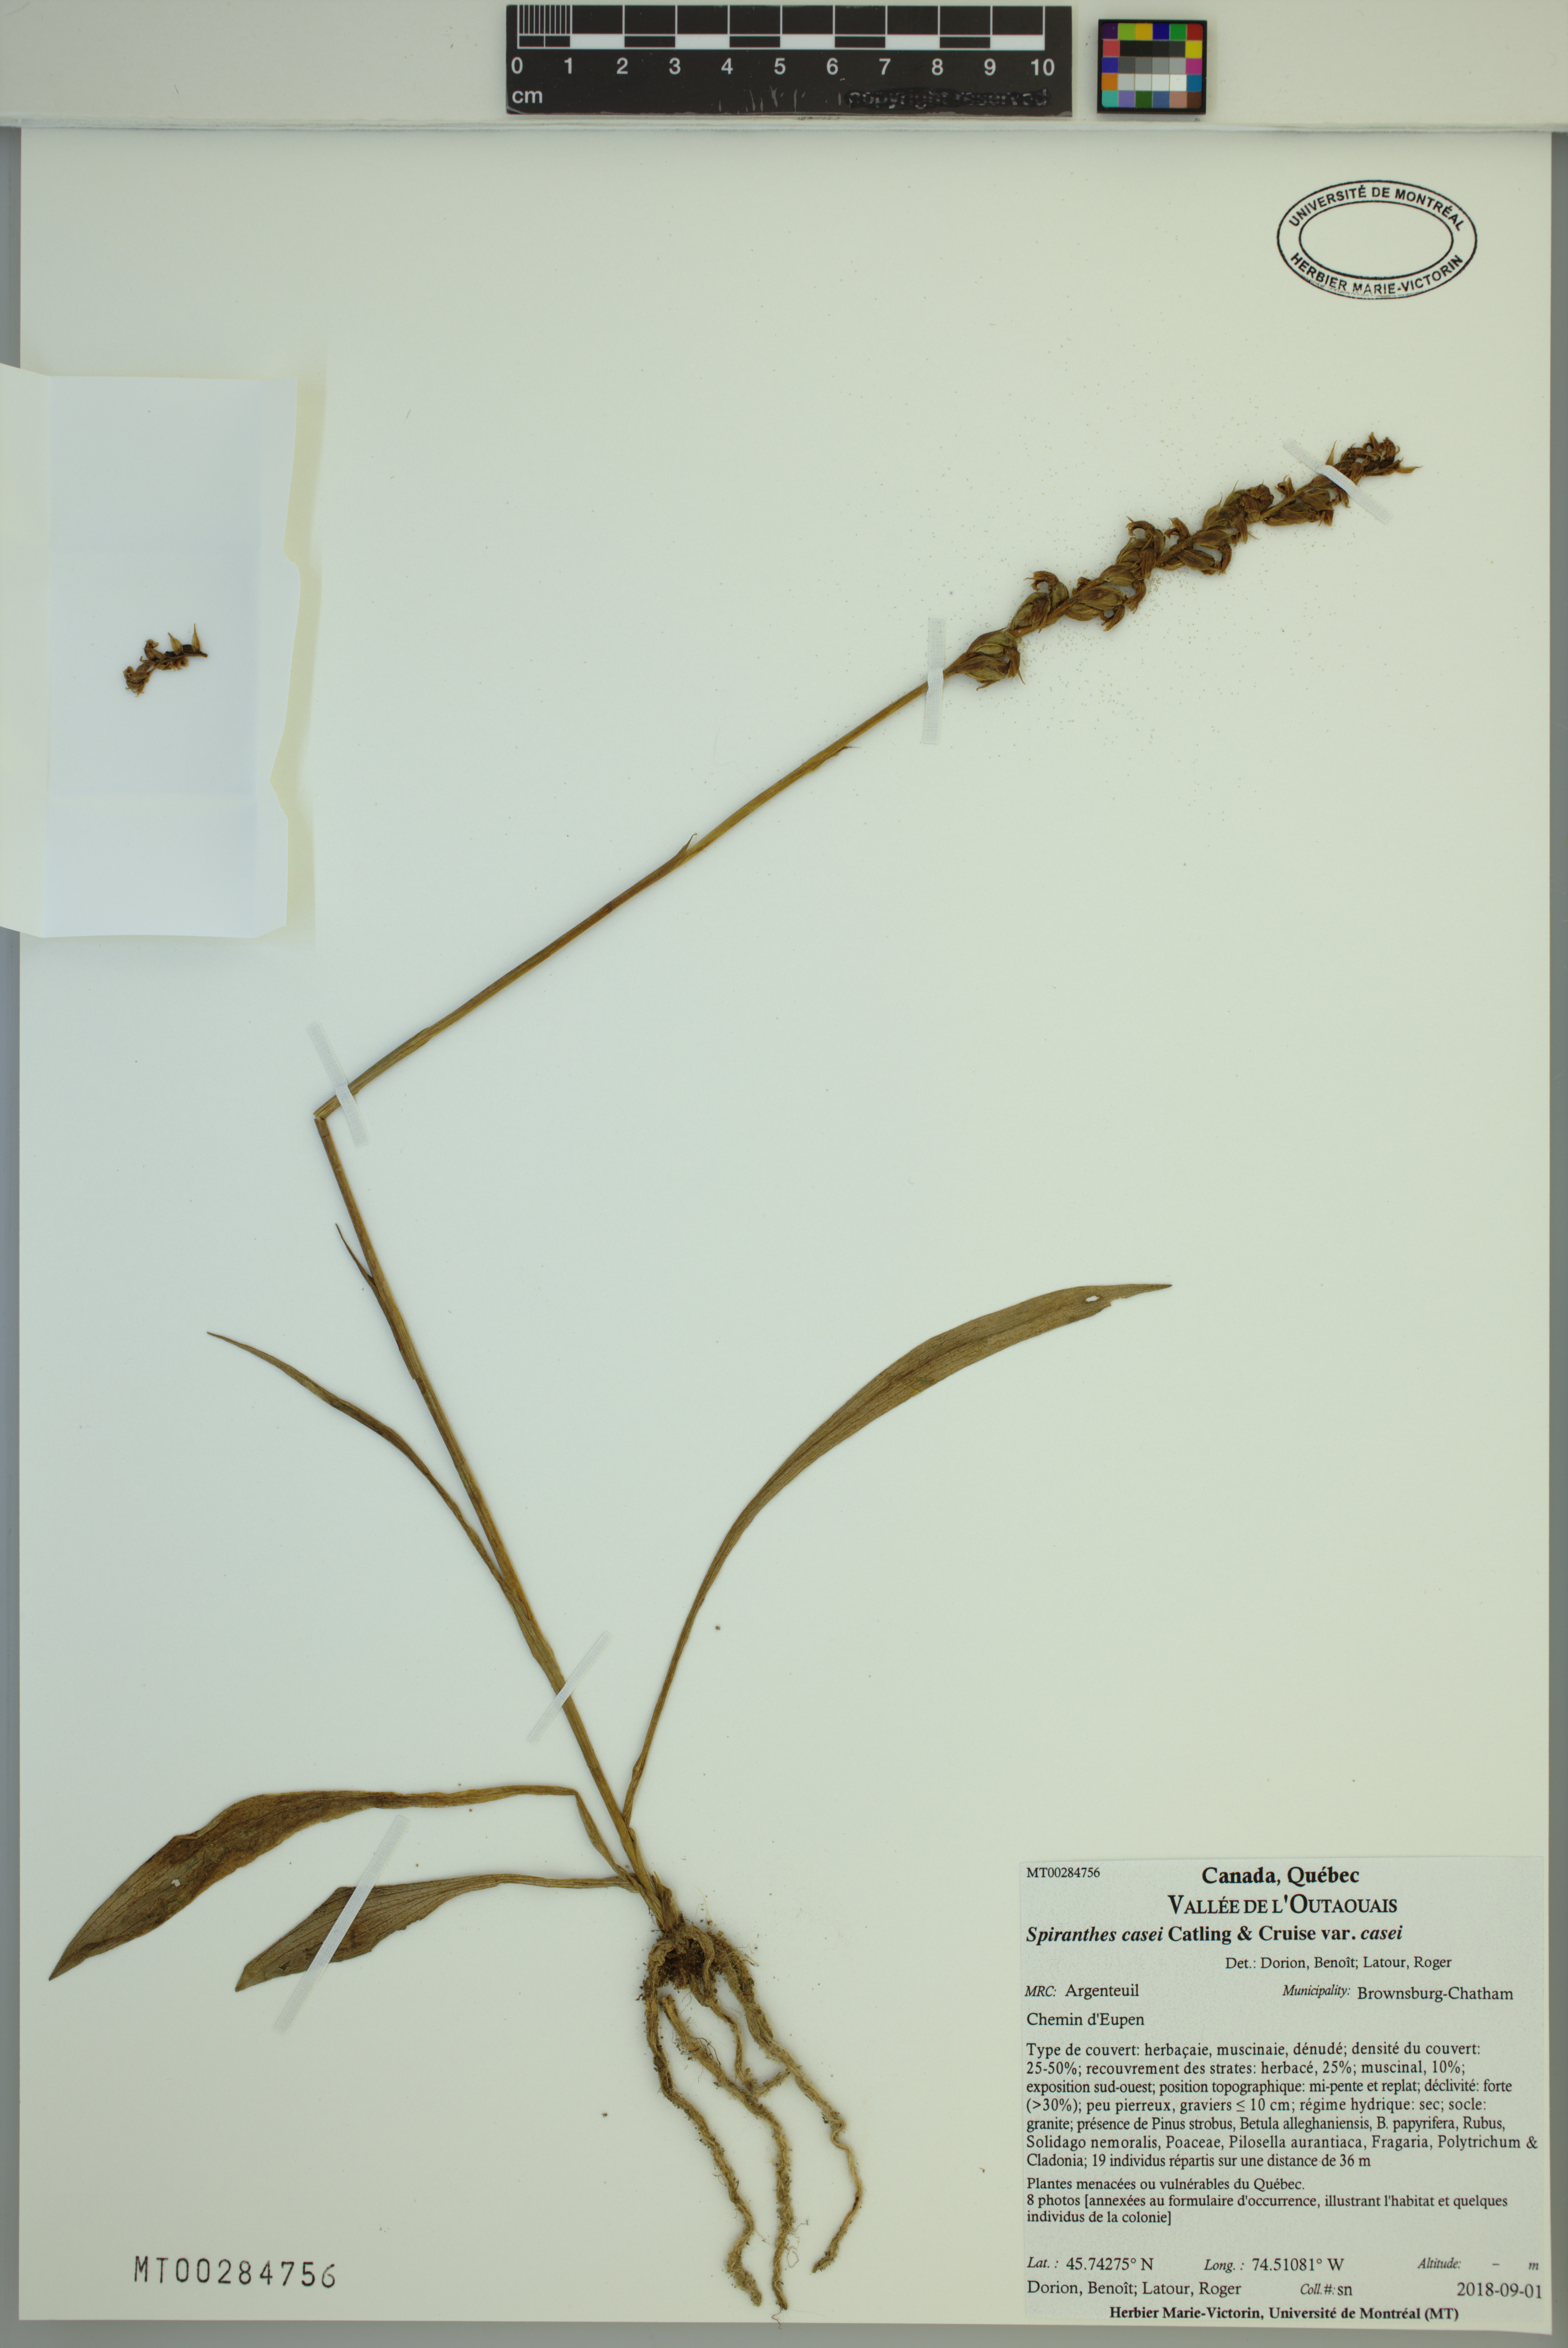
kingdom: Plantae
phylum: Tracheophyta
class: Liliopsida
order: Asparagales
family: Orchidaceae
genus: Spiranthes
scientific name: Spiranthes casei
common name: Case's ladies'-tresses
